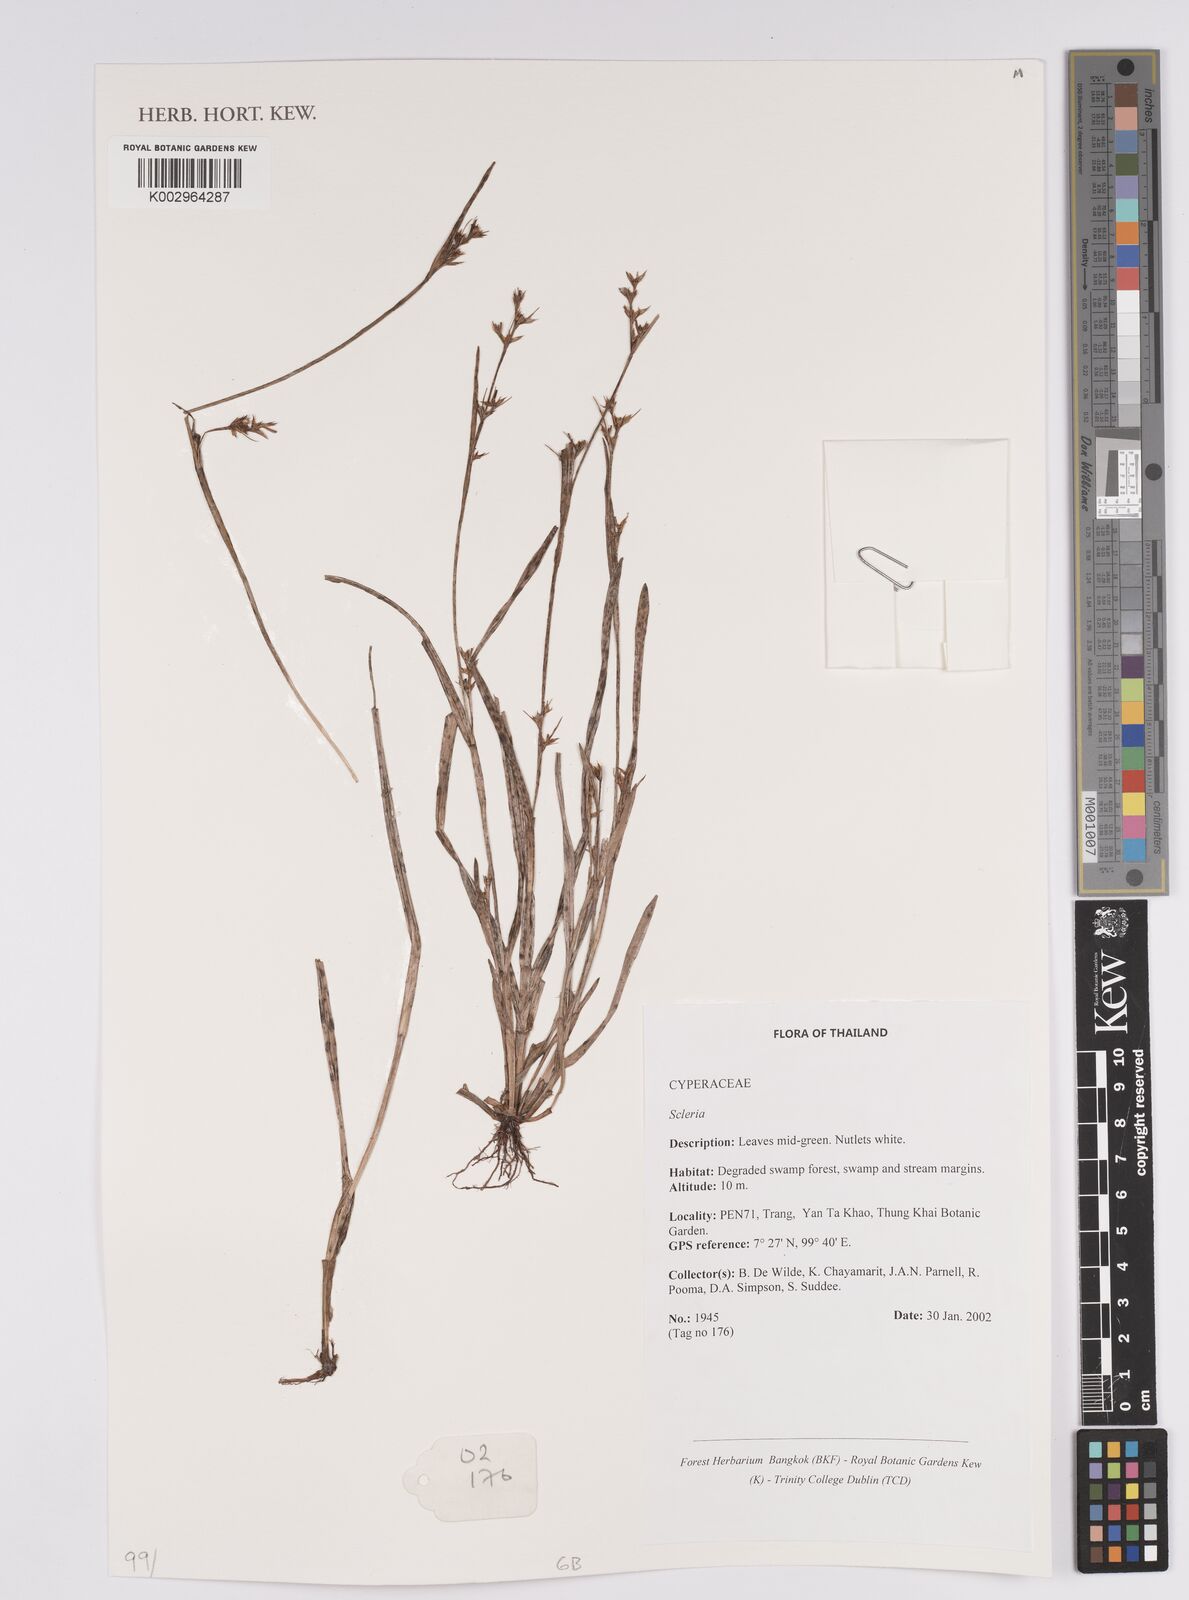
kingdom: Plantae
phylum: Tracheophyta
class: Liliopsida
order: Poales
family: Cyperaceae
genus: Scleria
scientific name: Scleria
